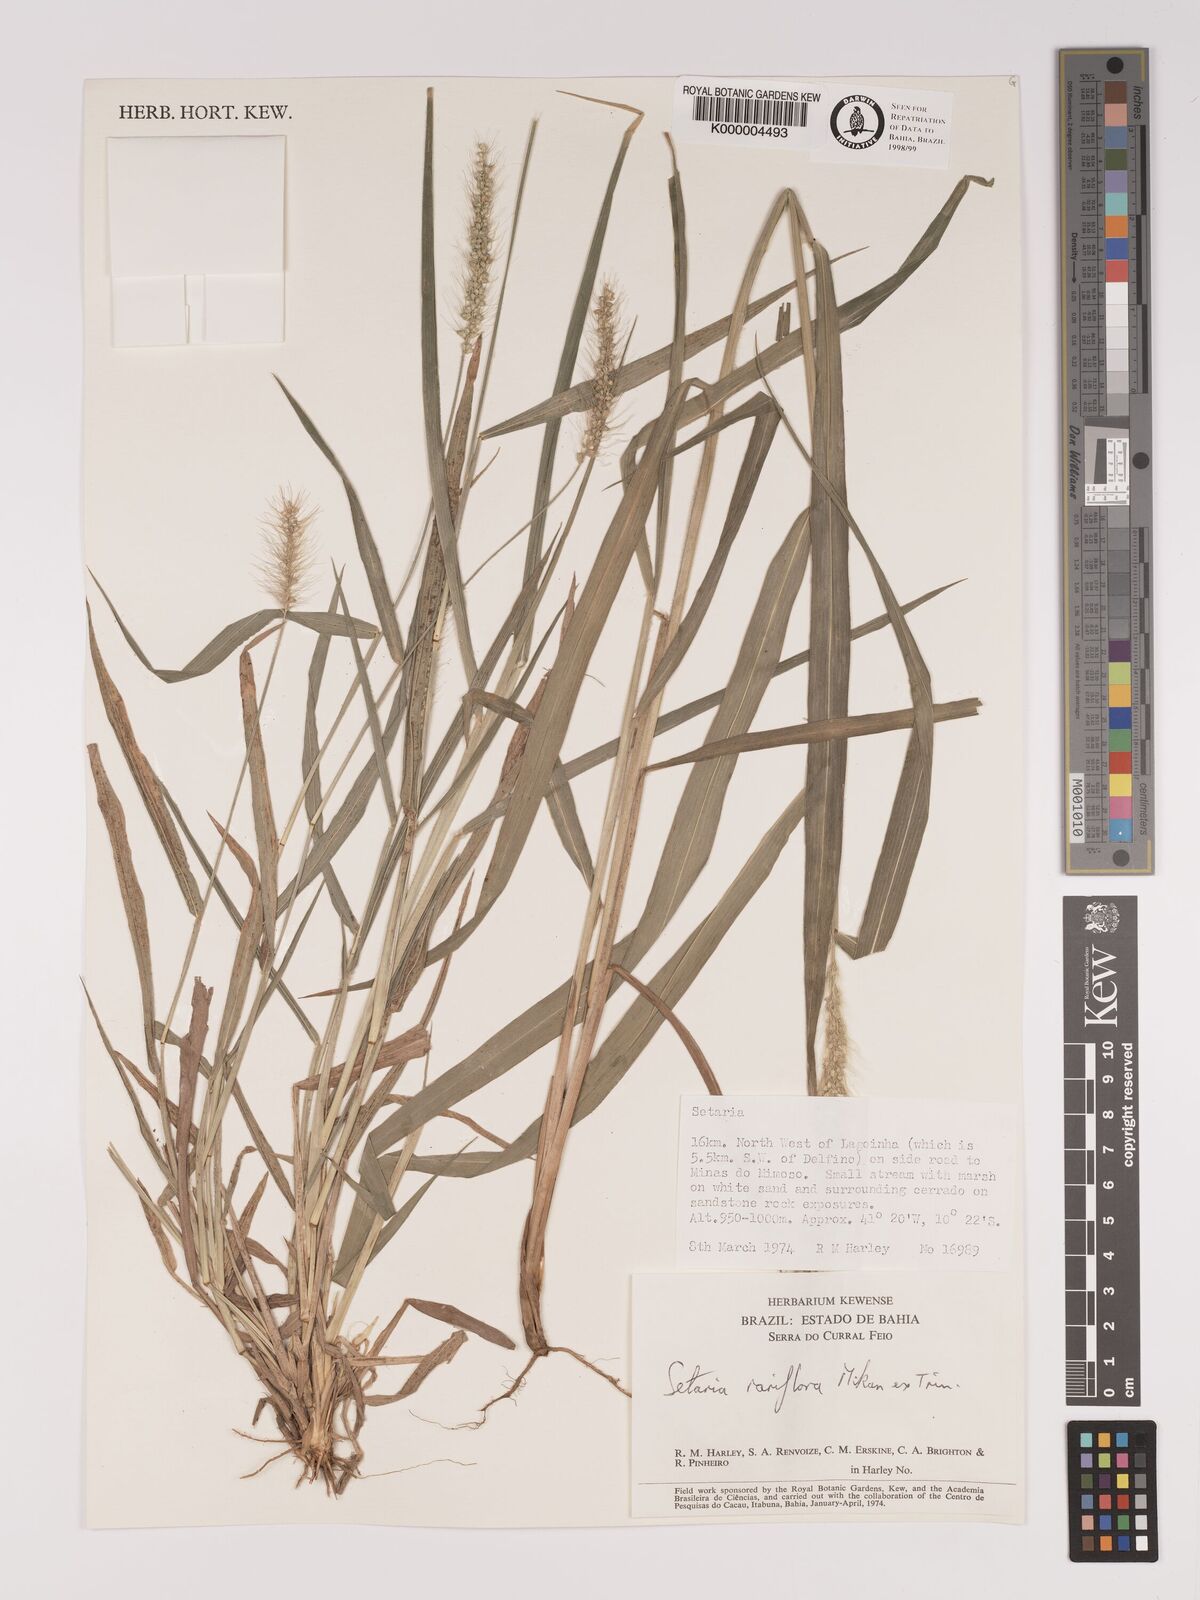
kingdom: Plantae
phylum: Tracheophyta
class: Liliopsida
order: Poales
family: Poaceae
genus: Setaria
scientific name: Setaria tenax
